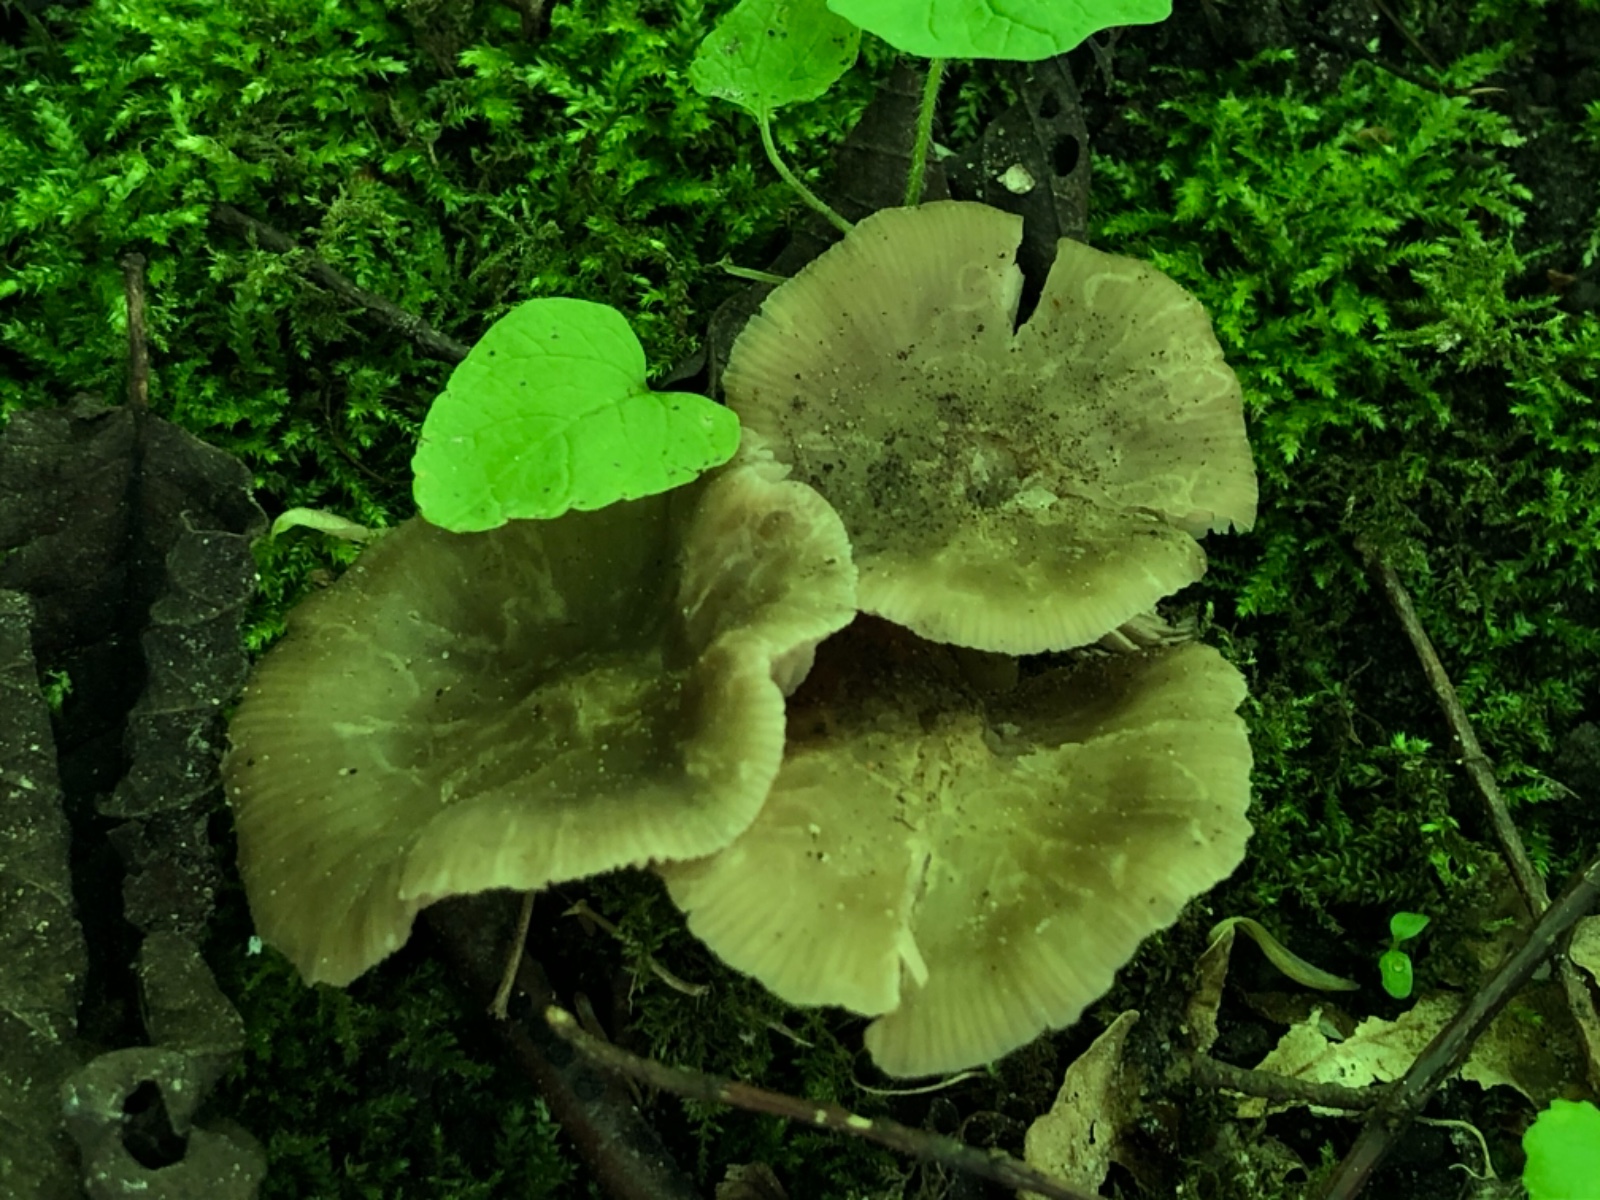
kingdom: Fungi
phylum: Basidiomycota
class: Agaricomycetes
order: Agaricales
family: Entolomataceae
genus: Entoloma
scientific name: Entoloma aprile
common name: maj-rødblad
